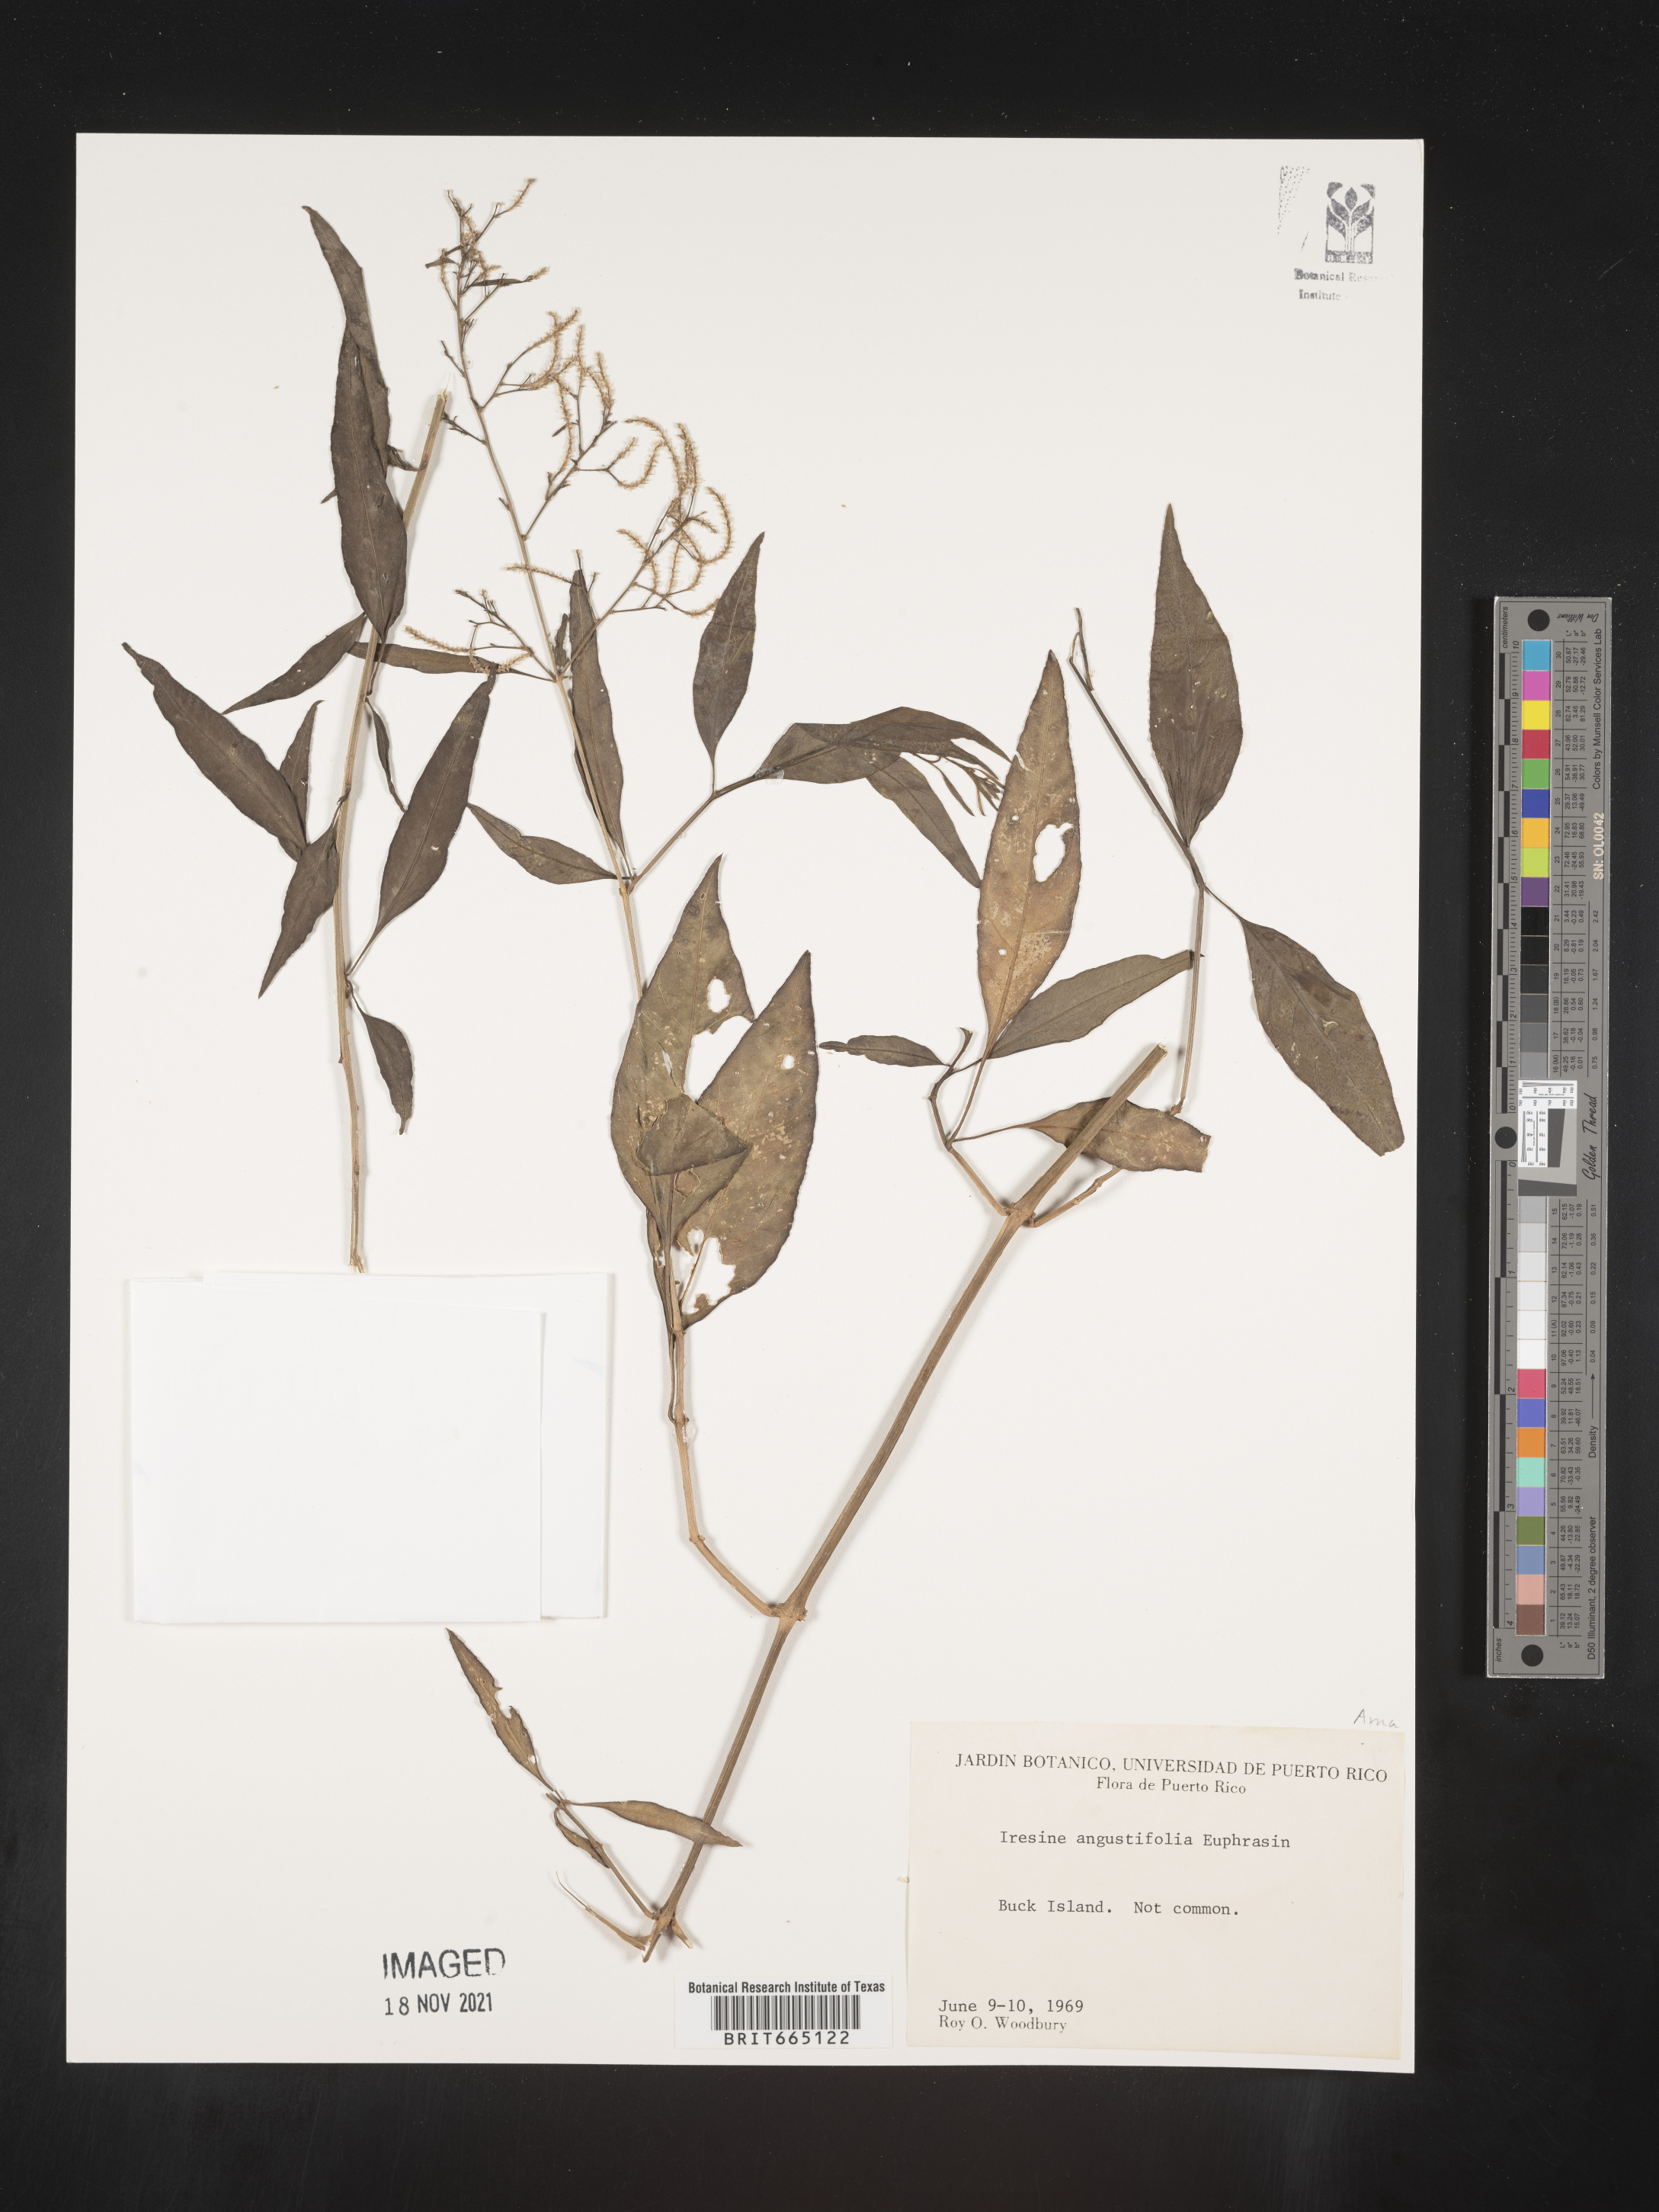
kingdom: Plantae
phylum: Tracheophyta
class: Magnoliopsida
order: Caryophyllales
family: Amaranthaceae
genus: Iresine
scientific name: Iresine
